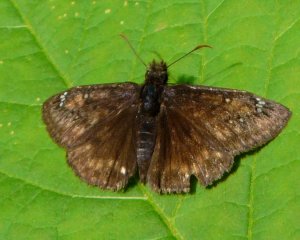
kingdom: Animalia
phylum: Arthropoda
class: Insecta
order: Lepidoptera
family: Hesperiidae
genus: Gesta
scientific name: Gesta
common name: Juvenal's Duskywing
